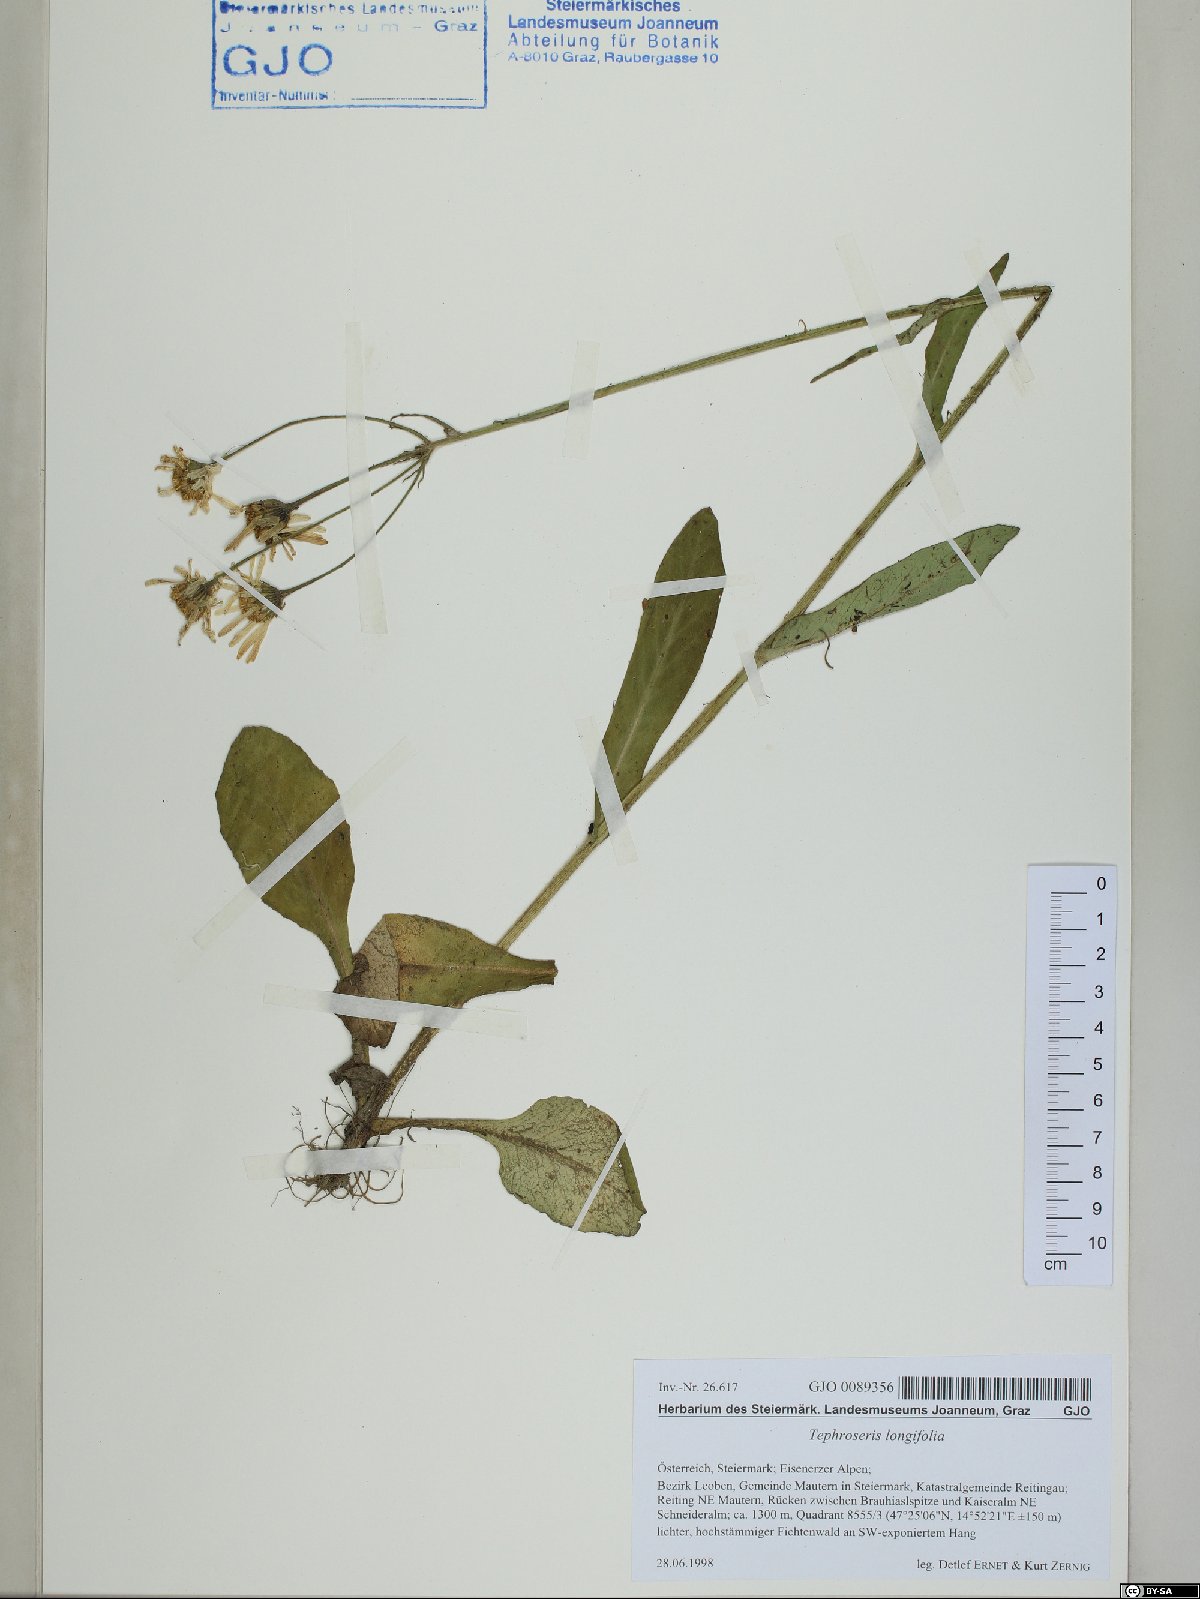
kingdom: Plantae
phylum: Tracheophyta
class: Magnoliopsida
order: Asterales
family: Asteraceae
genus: Tephroseris
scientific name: Tephroseris longifolia
